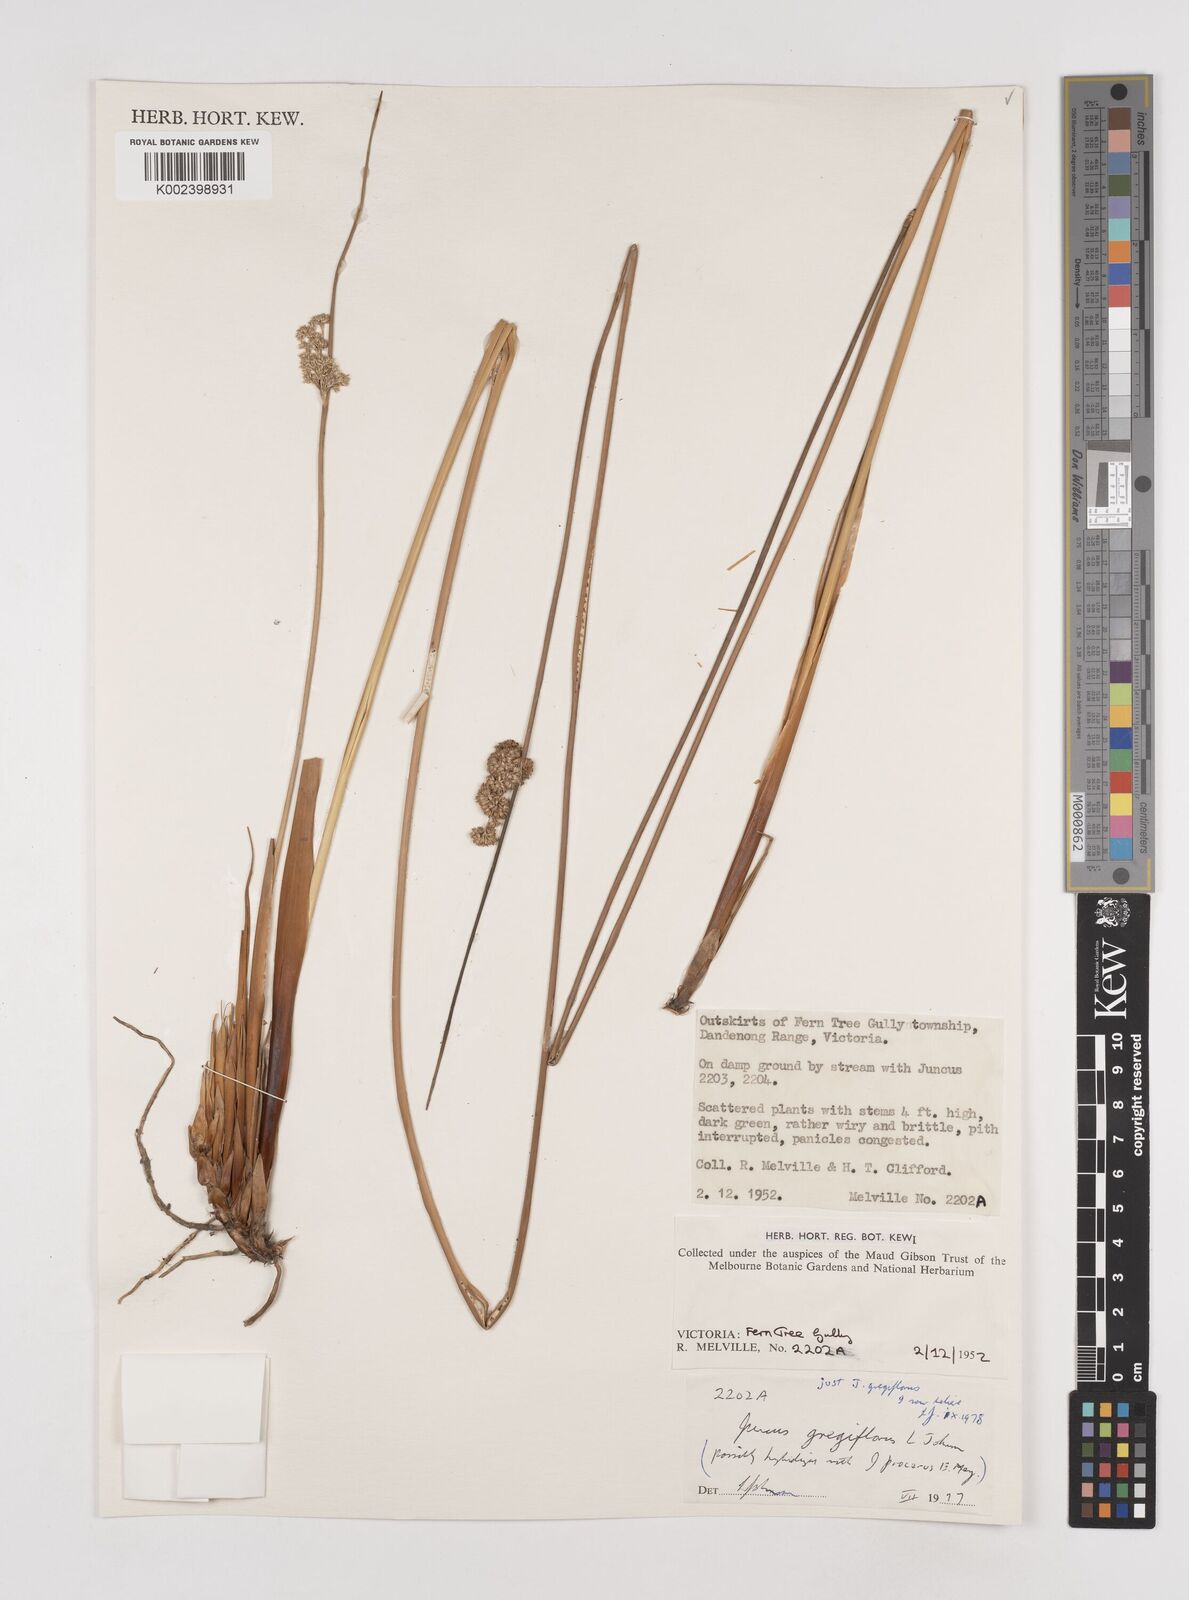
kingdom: Plantae
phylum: Tracheophyta
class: Liliopsida
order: Poales
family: Juncaceae
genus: Juncus
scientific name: Juncus gregiflorus
